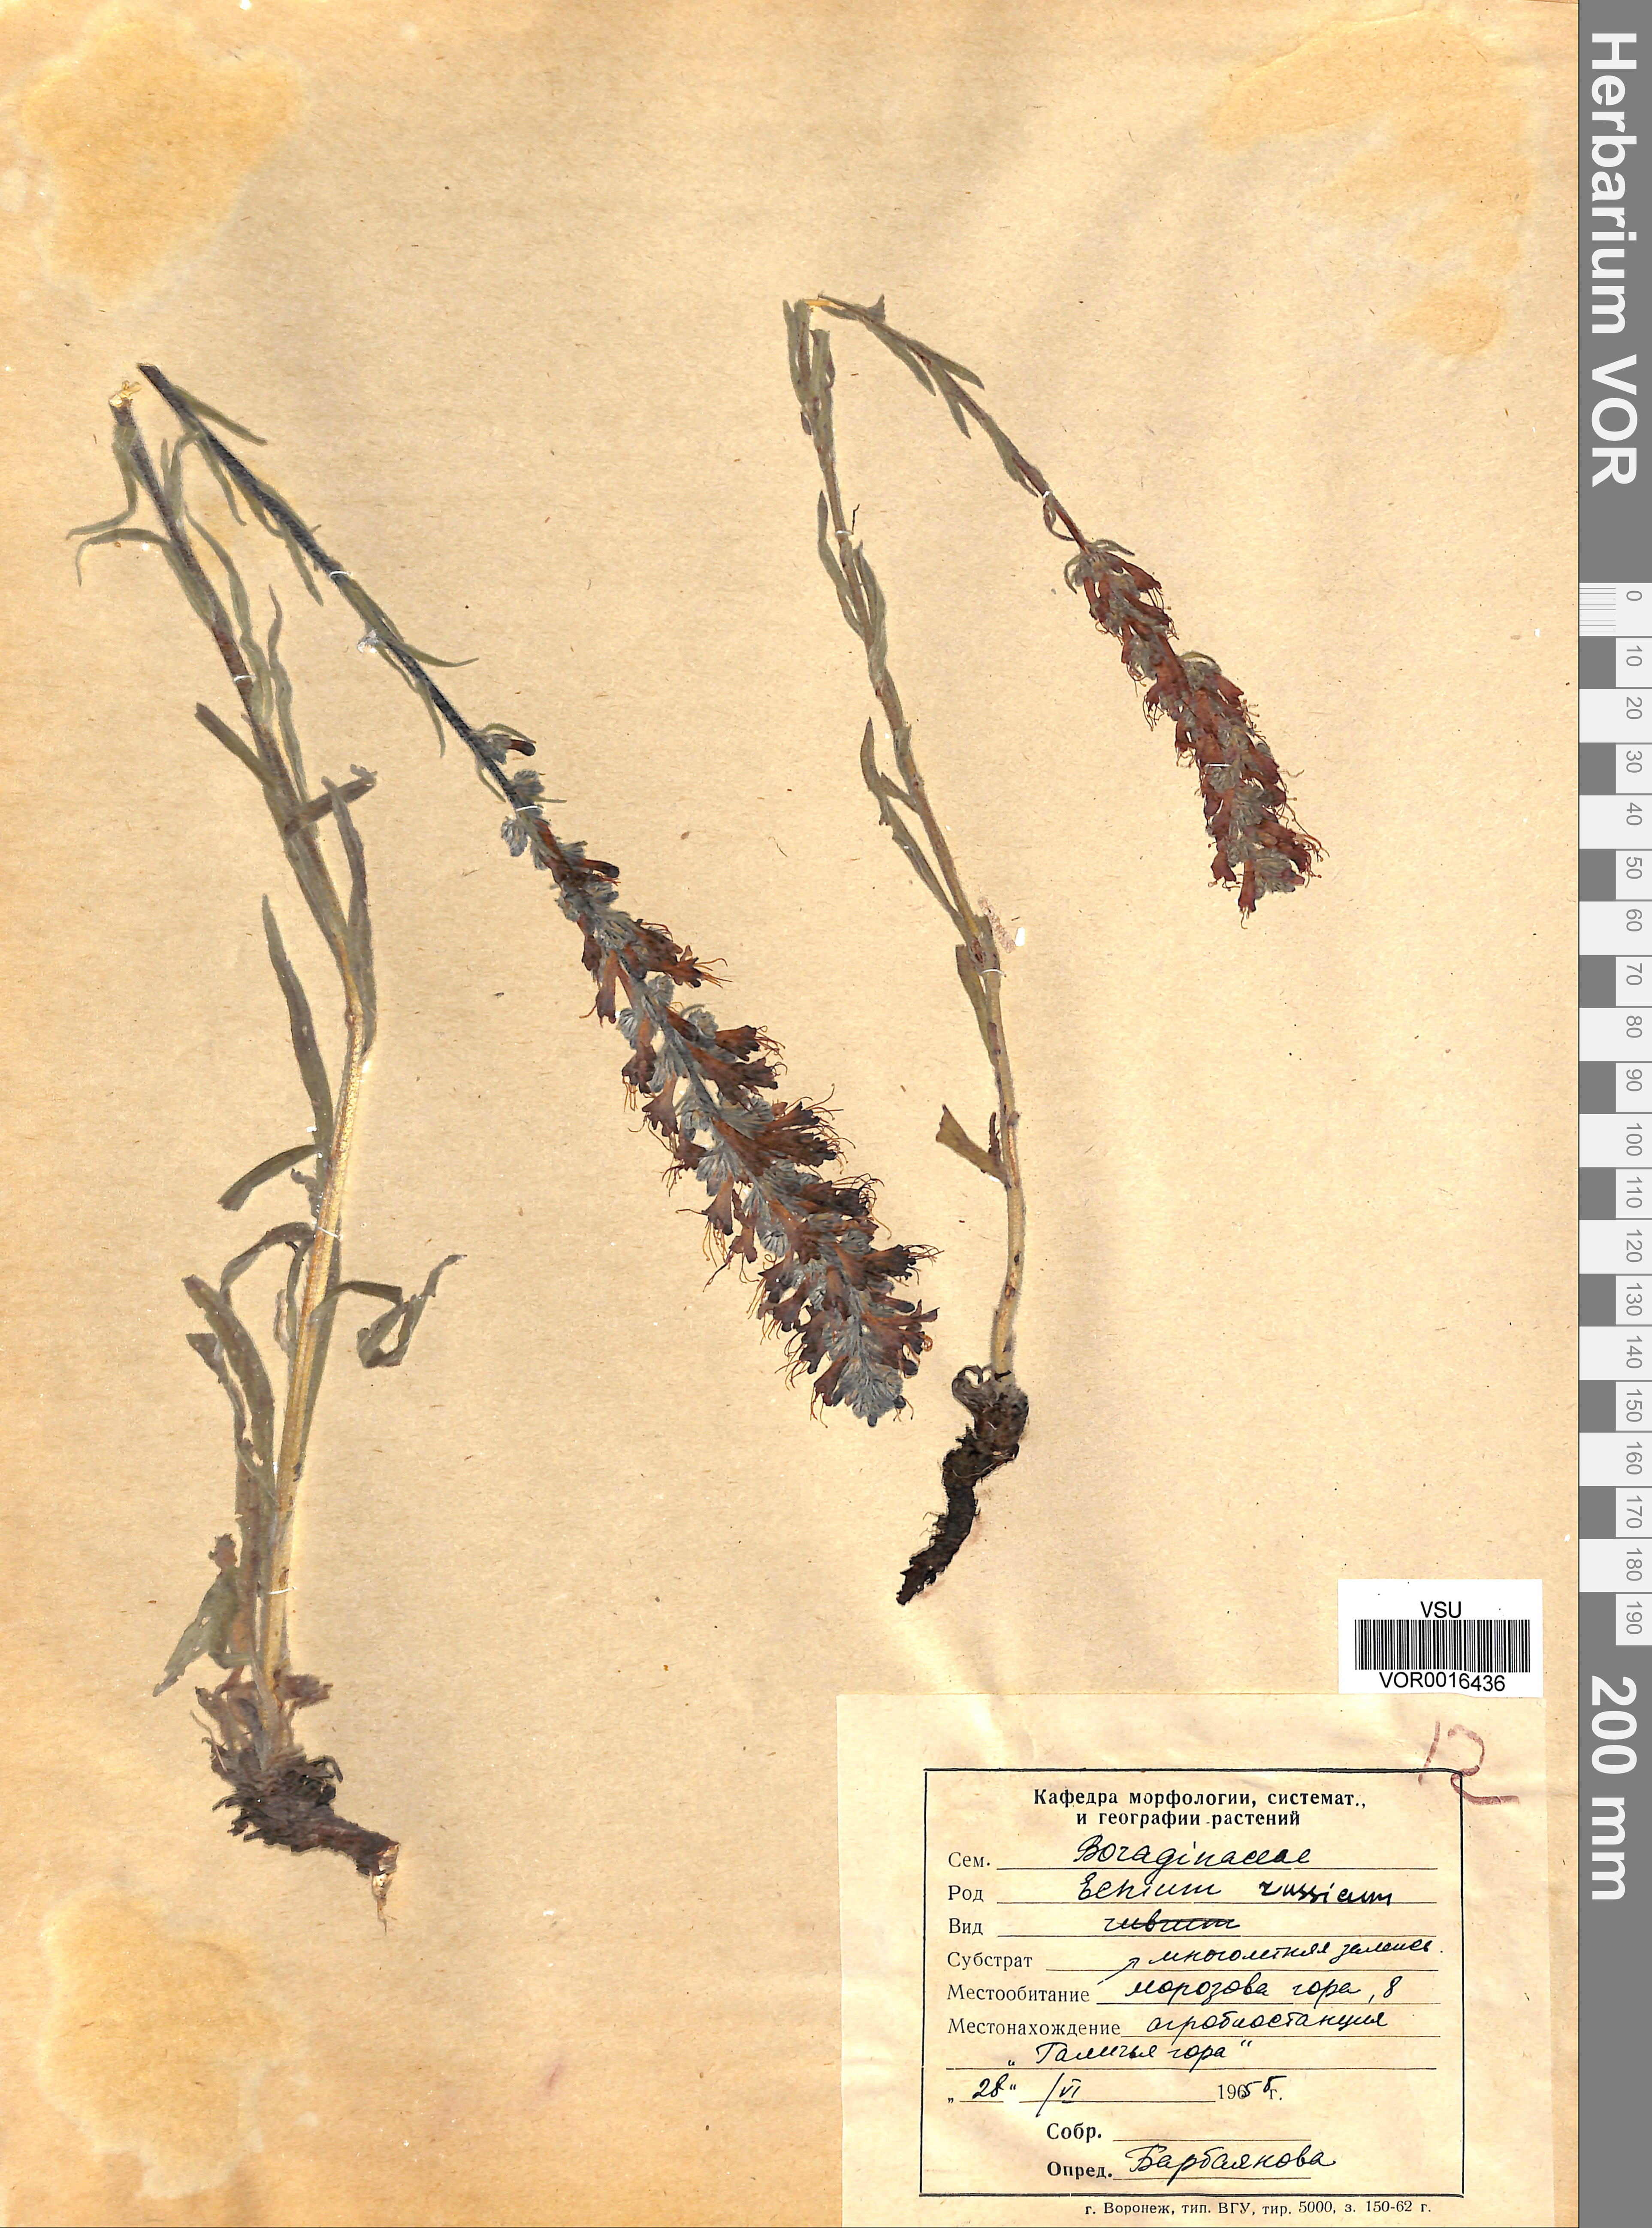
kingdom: Plantae
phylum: Tracheophyta
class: Magnoliopsida
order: Boraginales
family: Boraginaceae
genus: Pontechium
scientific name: Pontechium maculatum
